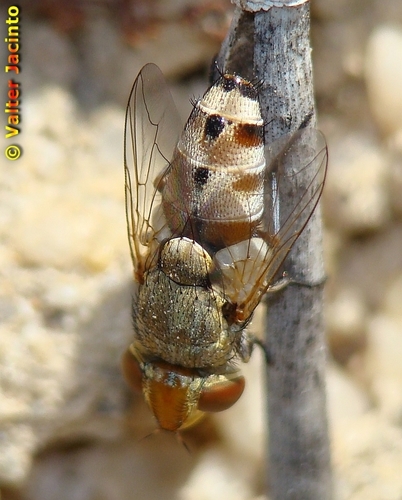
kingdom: Animalia
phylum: Arthropoda
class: Insecta
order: Diptera
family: Sarcophagidae
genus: Craticulina
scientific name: Craticulina tabaniformis
